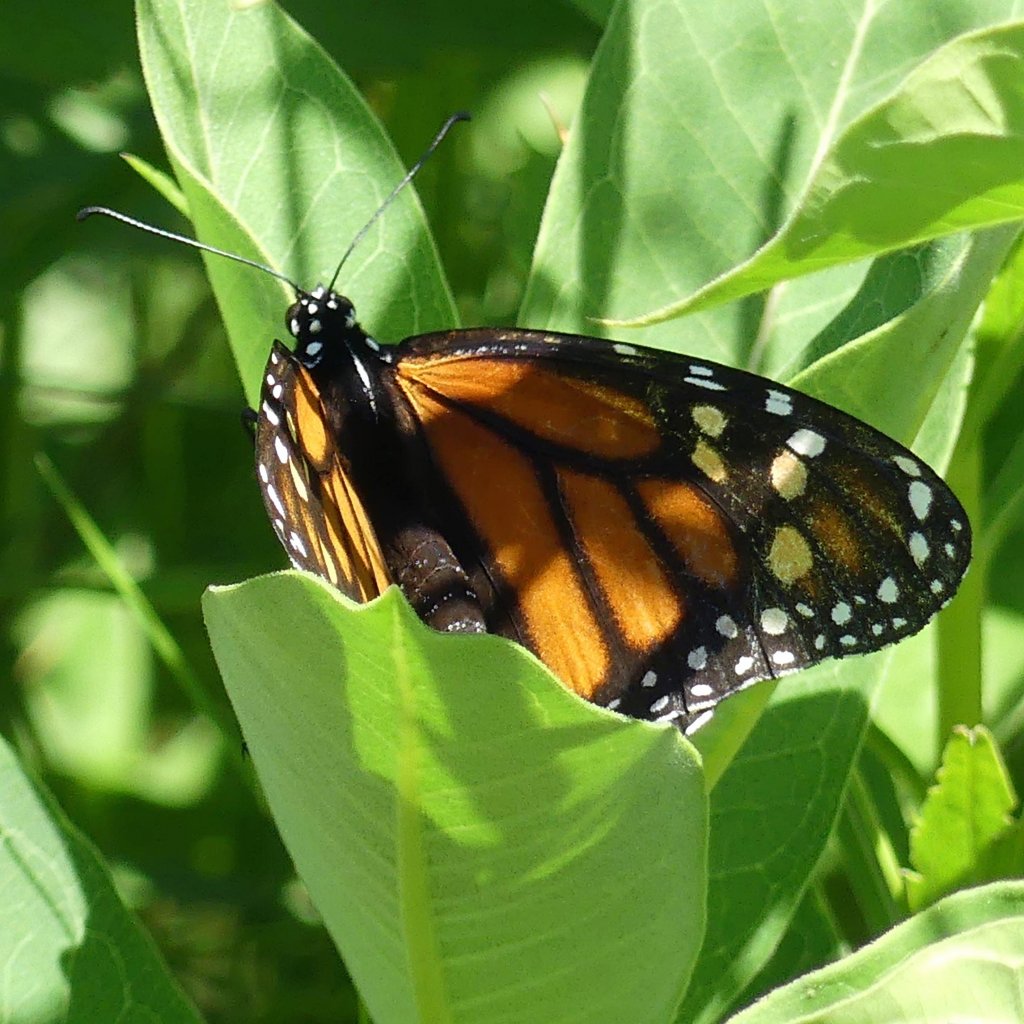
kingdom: Animalia
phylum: Arthropoda
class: Insecta
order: Lepidoptera
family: Nymphalidae
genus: Danaus
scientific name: Danaus plexippus
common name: Monarch
